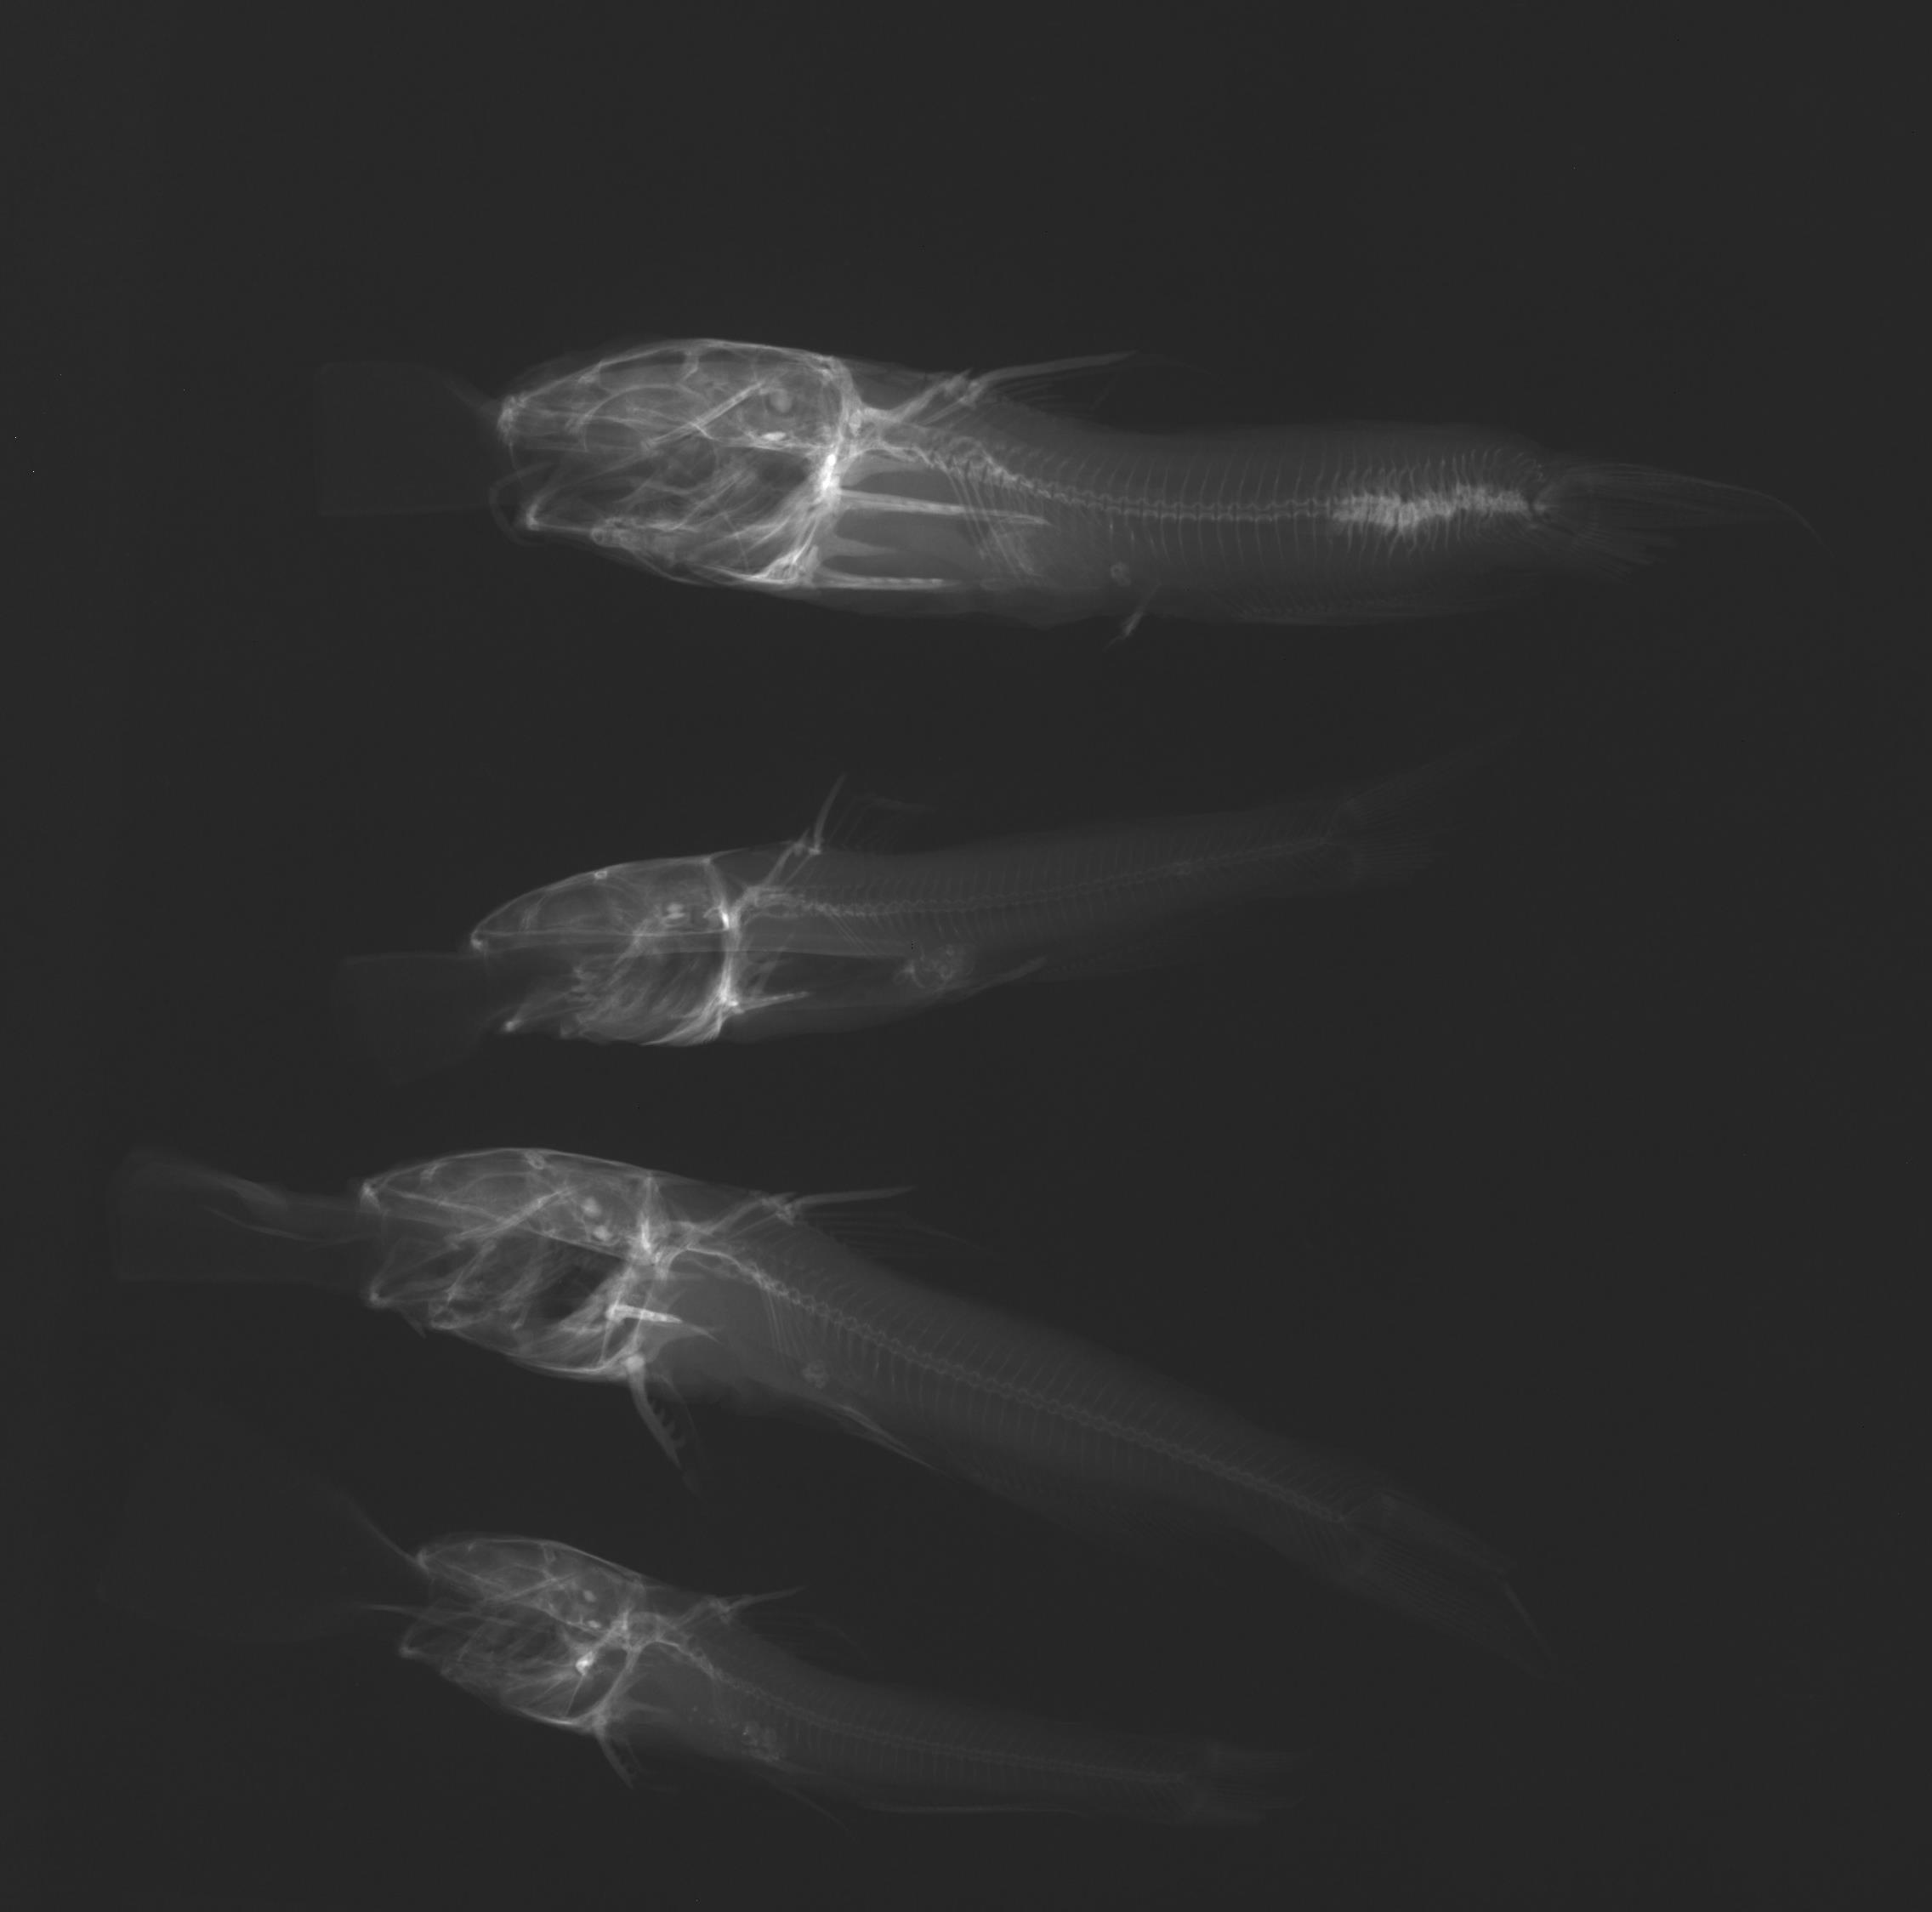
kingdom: Animalia
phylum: Chordata
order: Siluriformes
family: Ictaluridae
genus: Ictalurus
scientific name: Ictalurus lupus
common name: Headwater catfish
